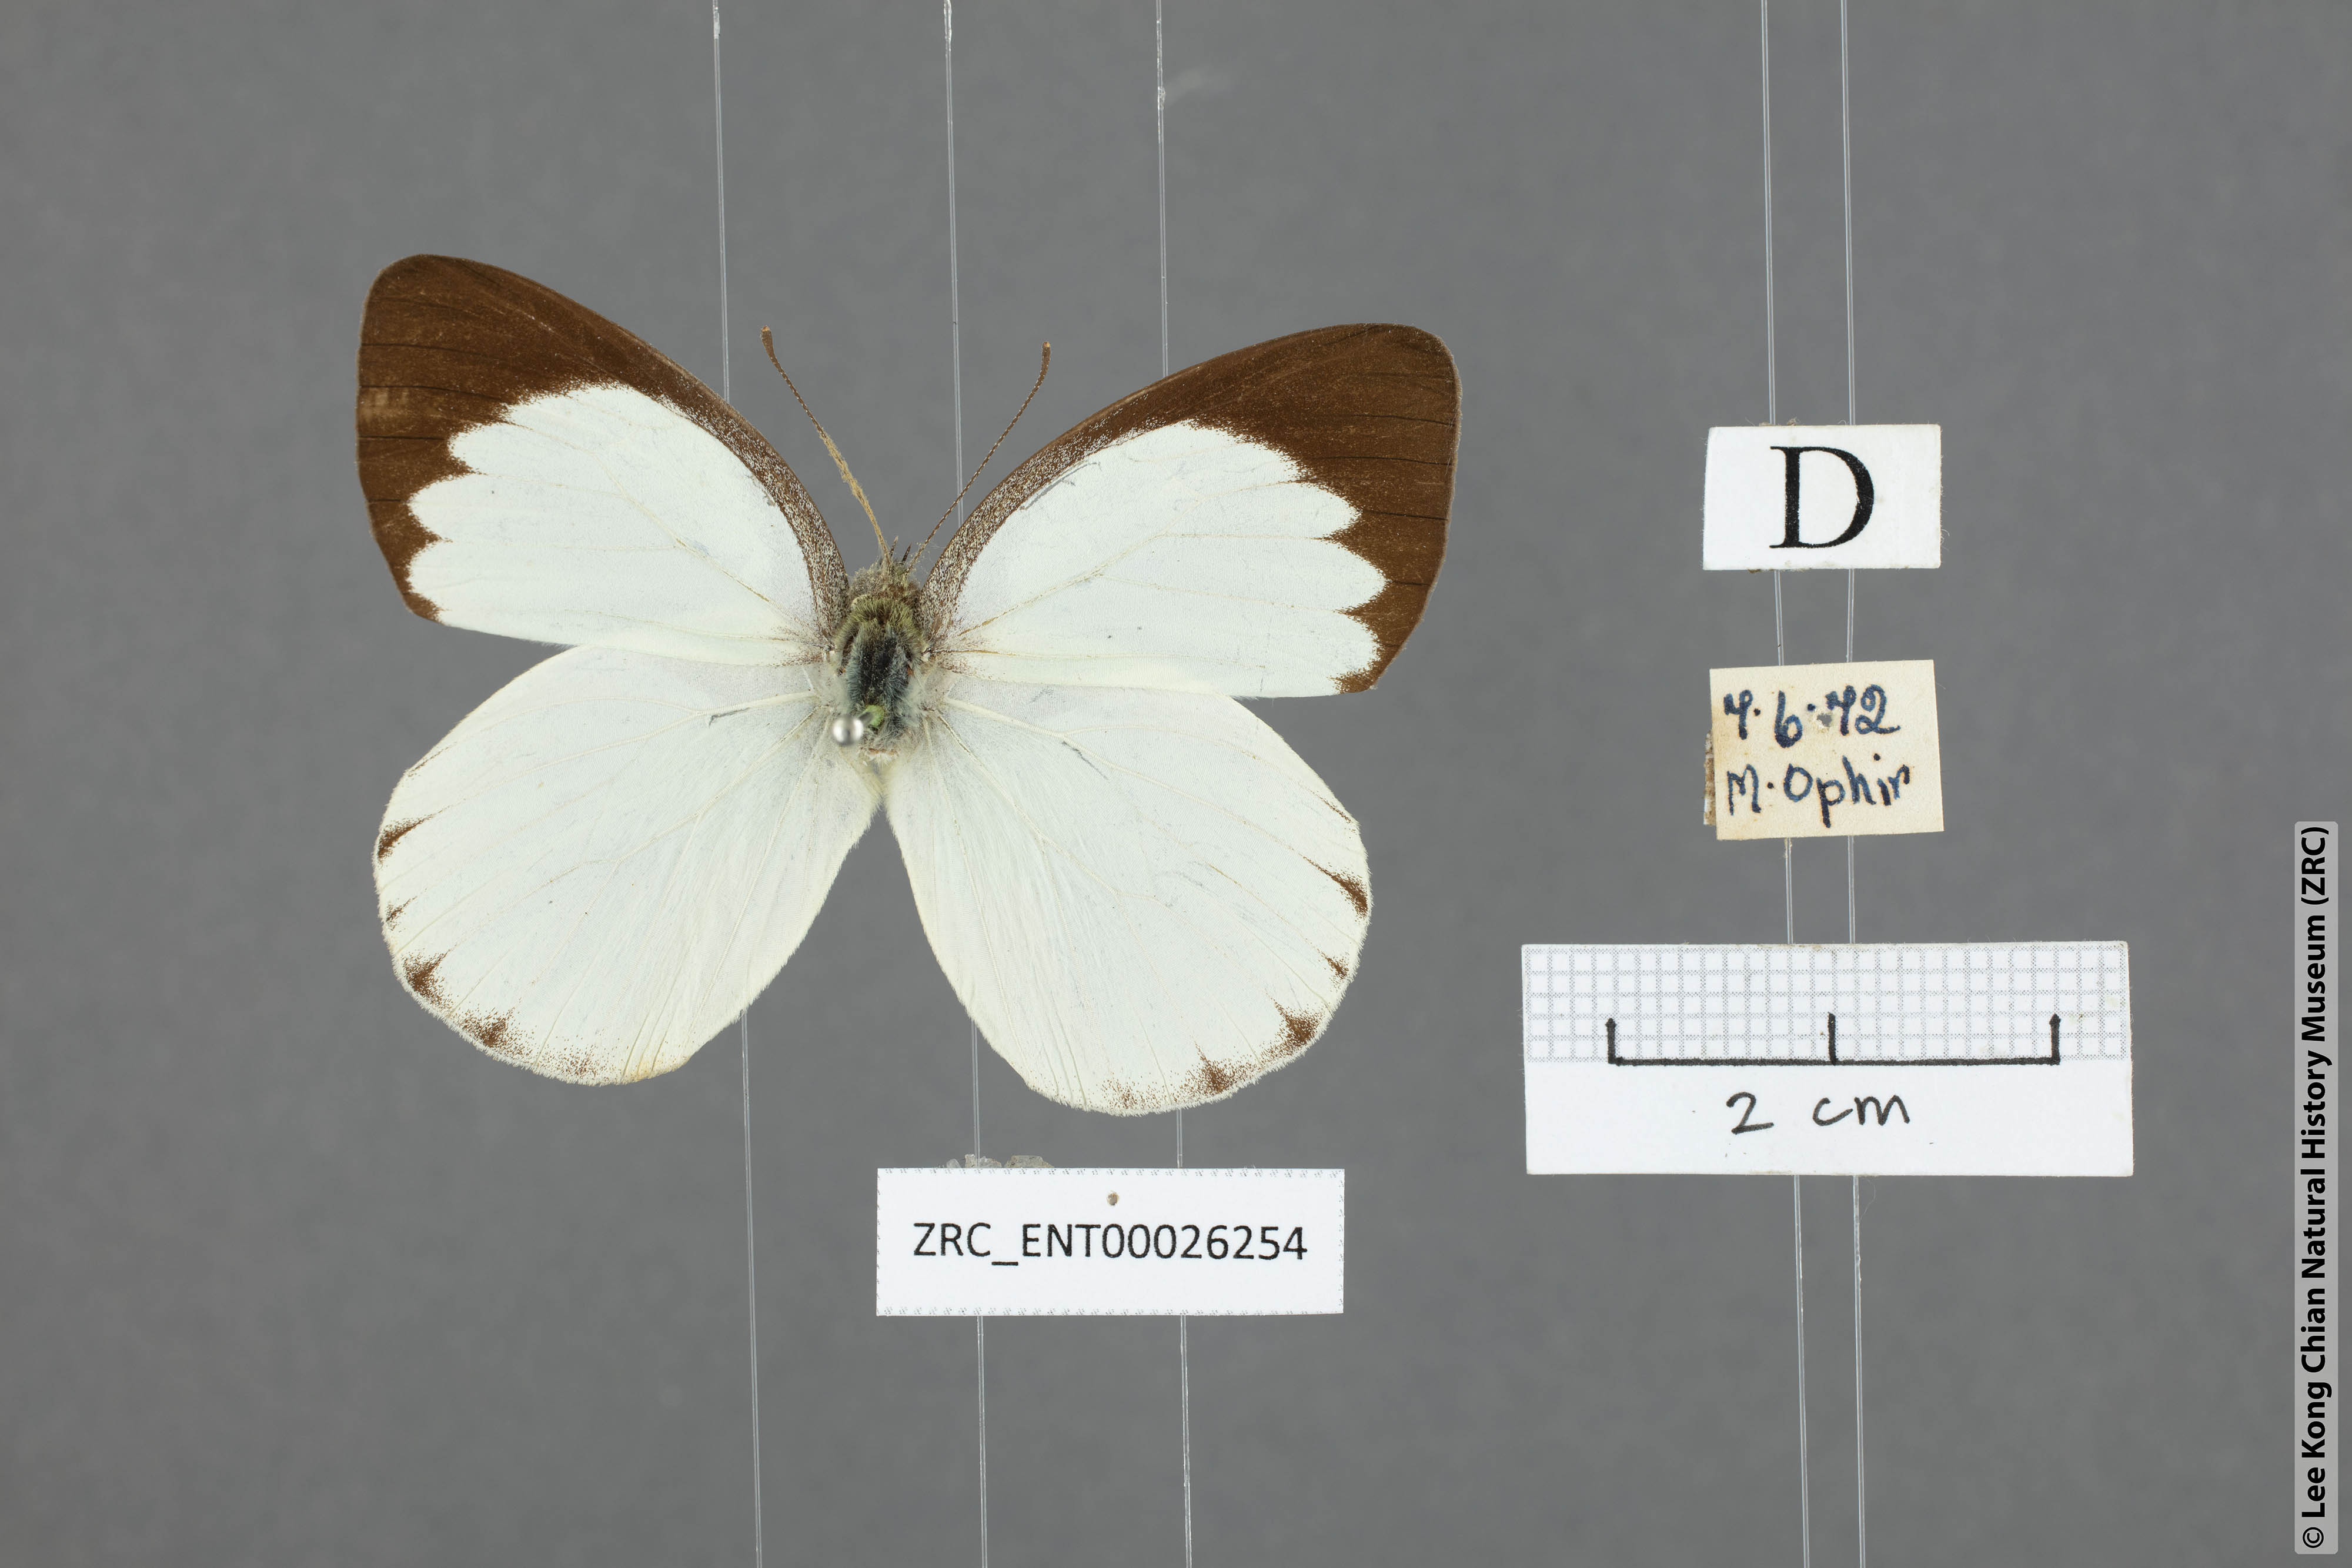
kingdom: Animalia
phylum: Arthropoda
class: Insecta
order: Lepidoptera
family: Pieridae
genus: Phrissura
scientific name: Phrissura aegis
